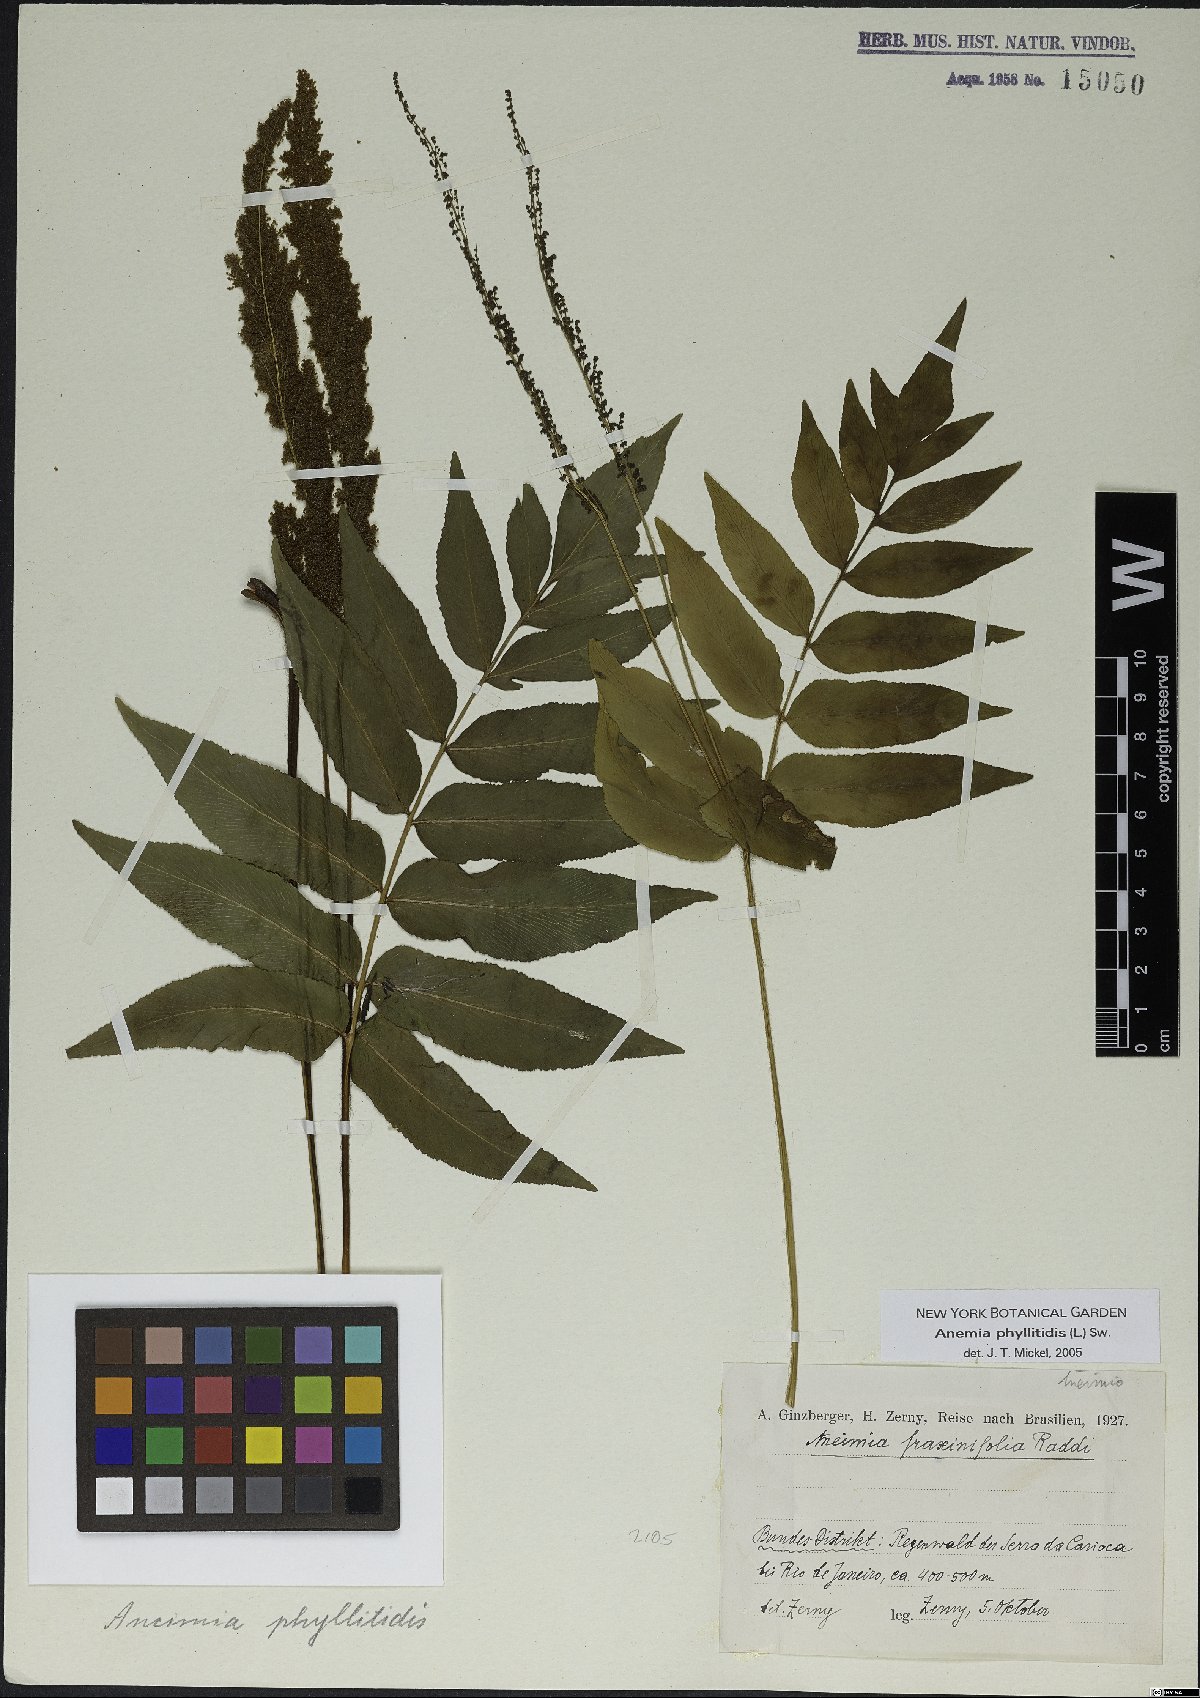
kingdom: Plantae
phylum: Tracheophyta
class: Polypodiopsida
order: Schizaeales
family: Anemiaceae
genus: Anemia
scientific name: Anemia phyllitidis
